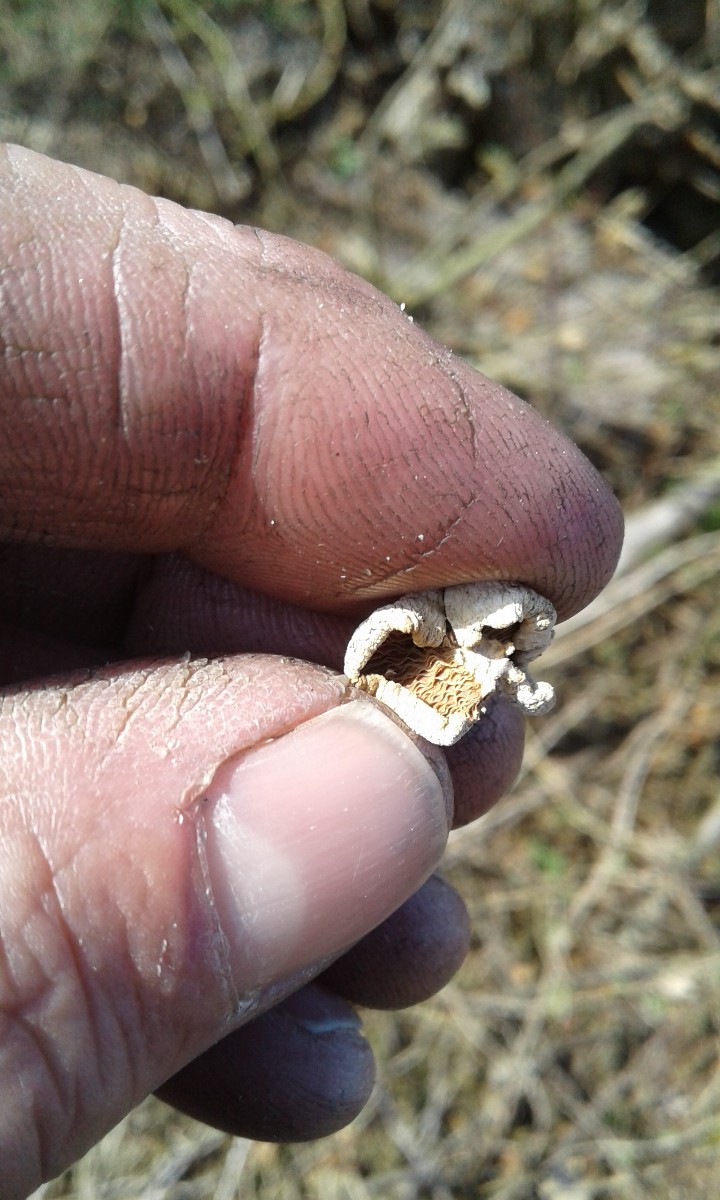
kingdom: Fungi
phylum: Basidiomycota
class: Agaricomycetes
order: Agaricales
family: Mycenaceae
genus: Panellus
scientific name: Panellus stipticus
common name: kliddet epaulethat
